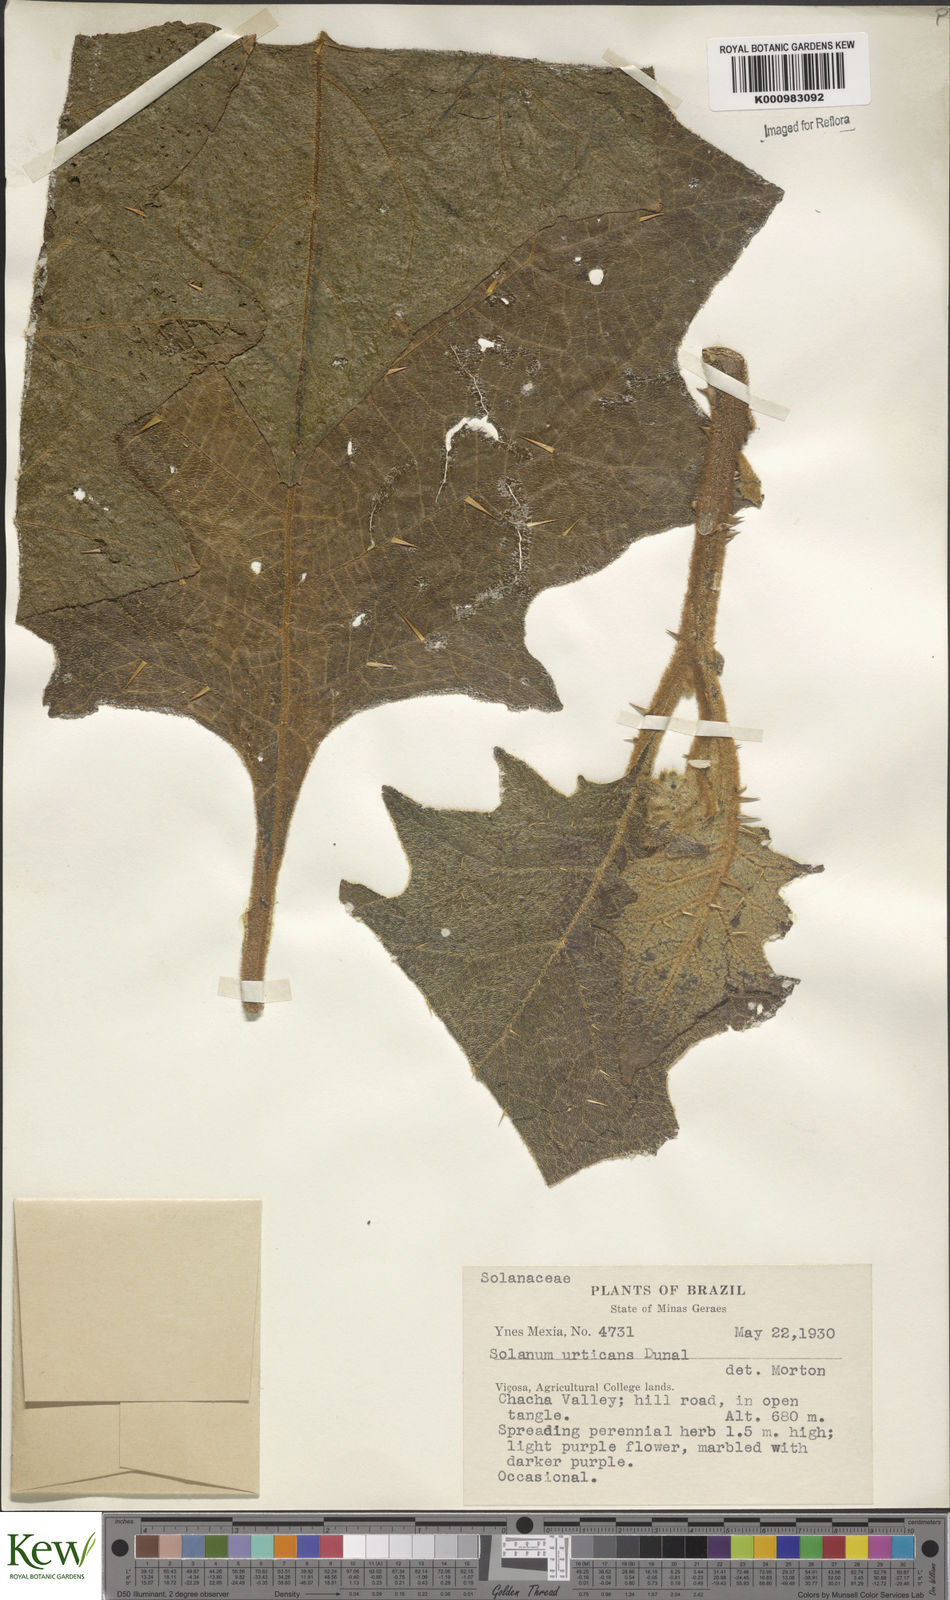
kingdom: Plantae
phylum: Tracheophyta
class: Magnoliopsida
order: Solanales
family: Solanaceae
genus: Solanum
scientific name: Solanum urticans
